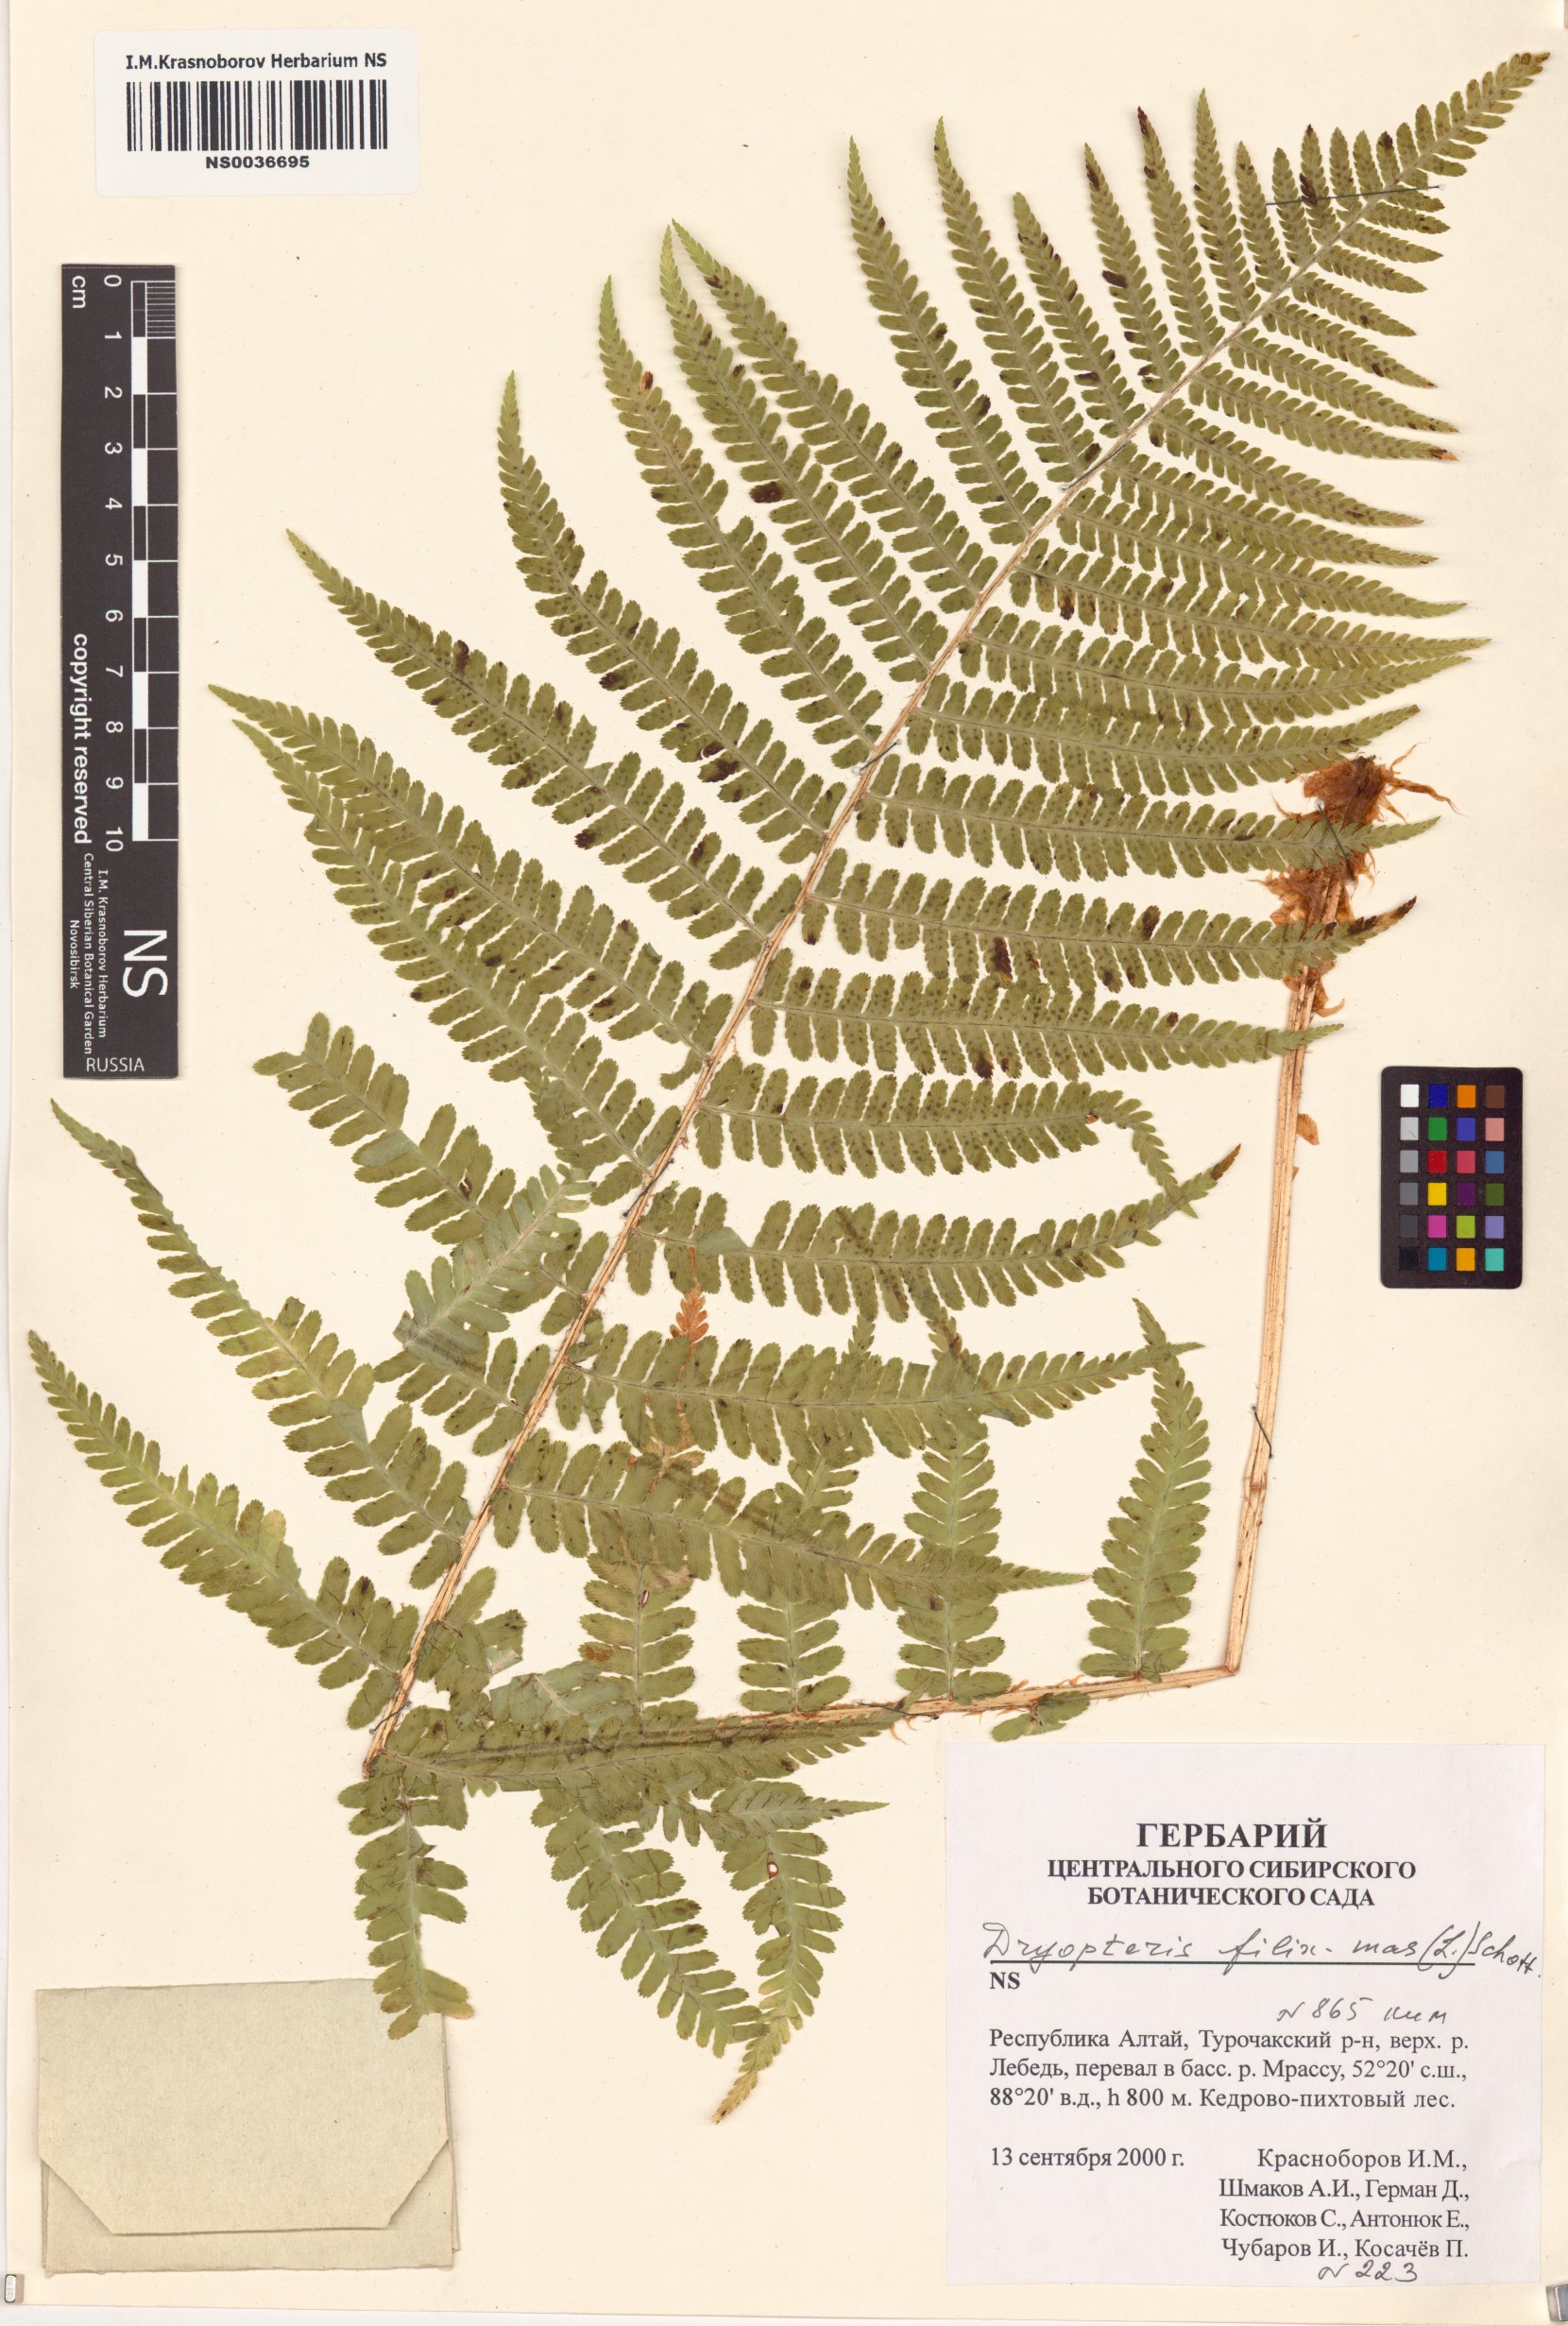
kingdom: Plantae
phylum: Tracheophyta
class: Polypodiopsida
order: Polypodiales
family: Dryopteridaceae
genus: Dryopteris
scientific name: Dryopteris filix-mas
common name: Male fern
